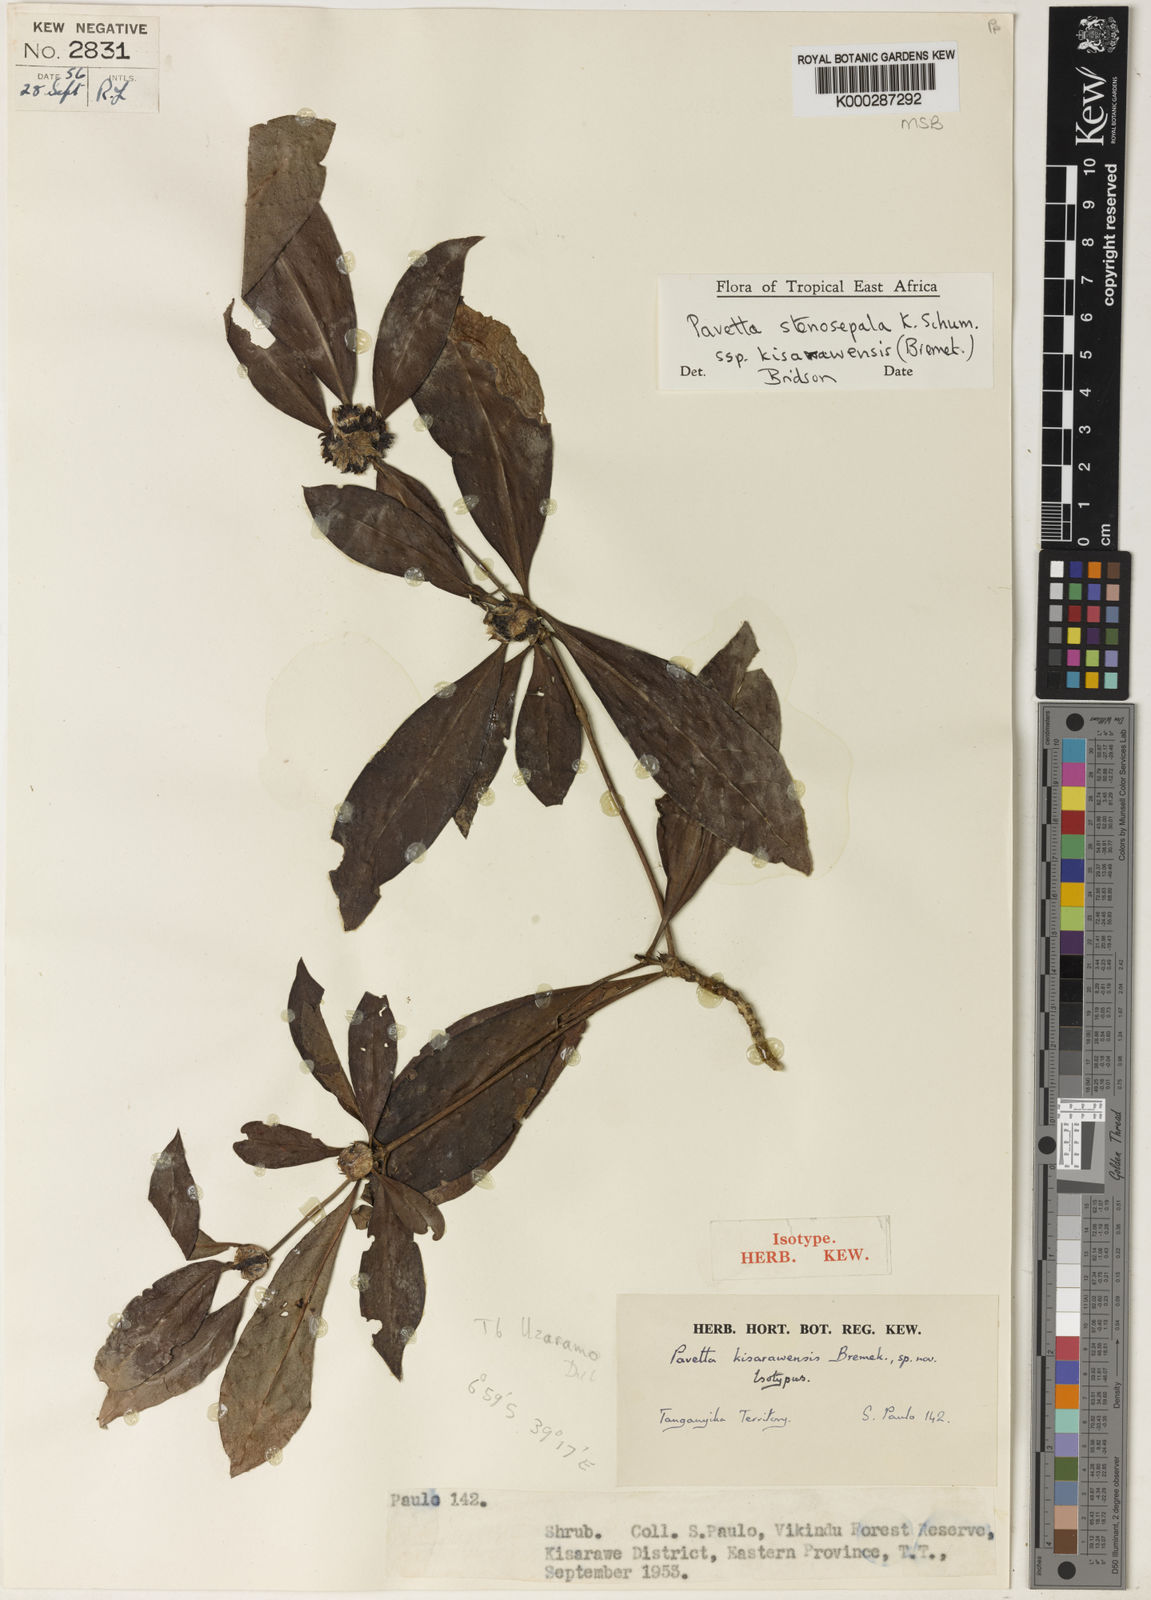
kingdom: Plantae
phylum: Tracheophyta
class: Magnoliopsida
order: Gentianales
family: Rubiaceae
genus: Pavetta
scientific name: Pavetta stenosepala
